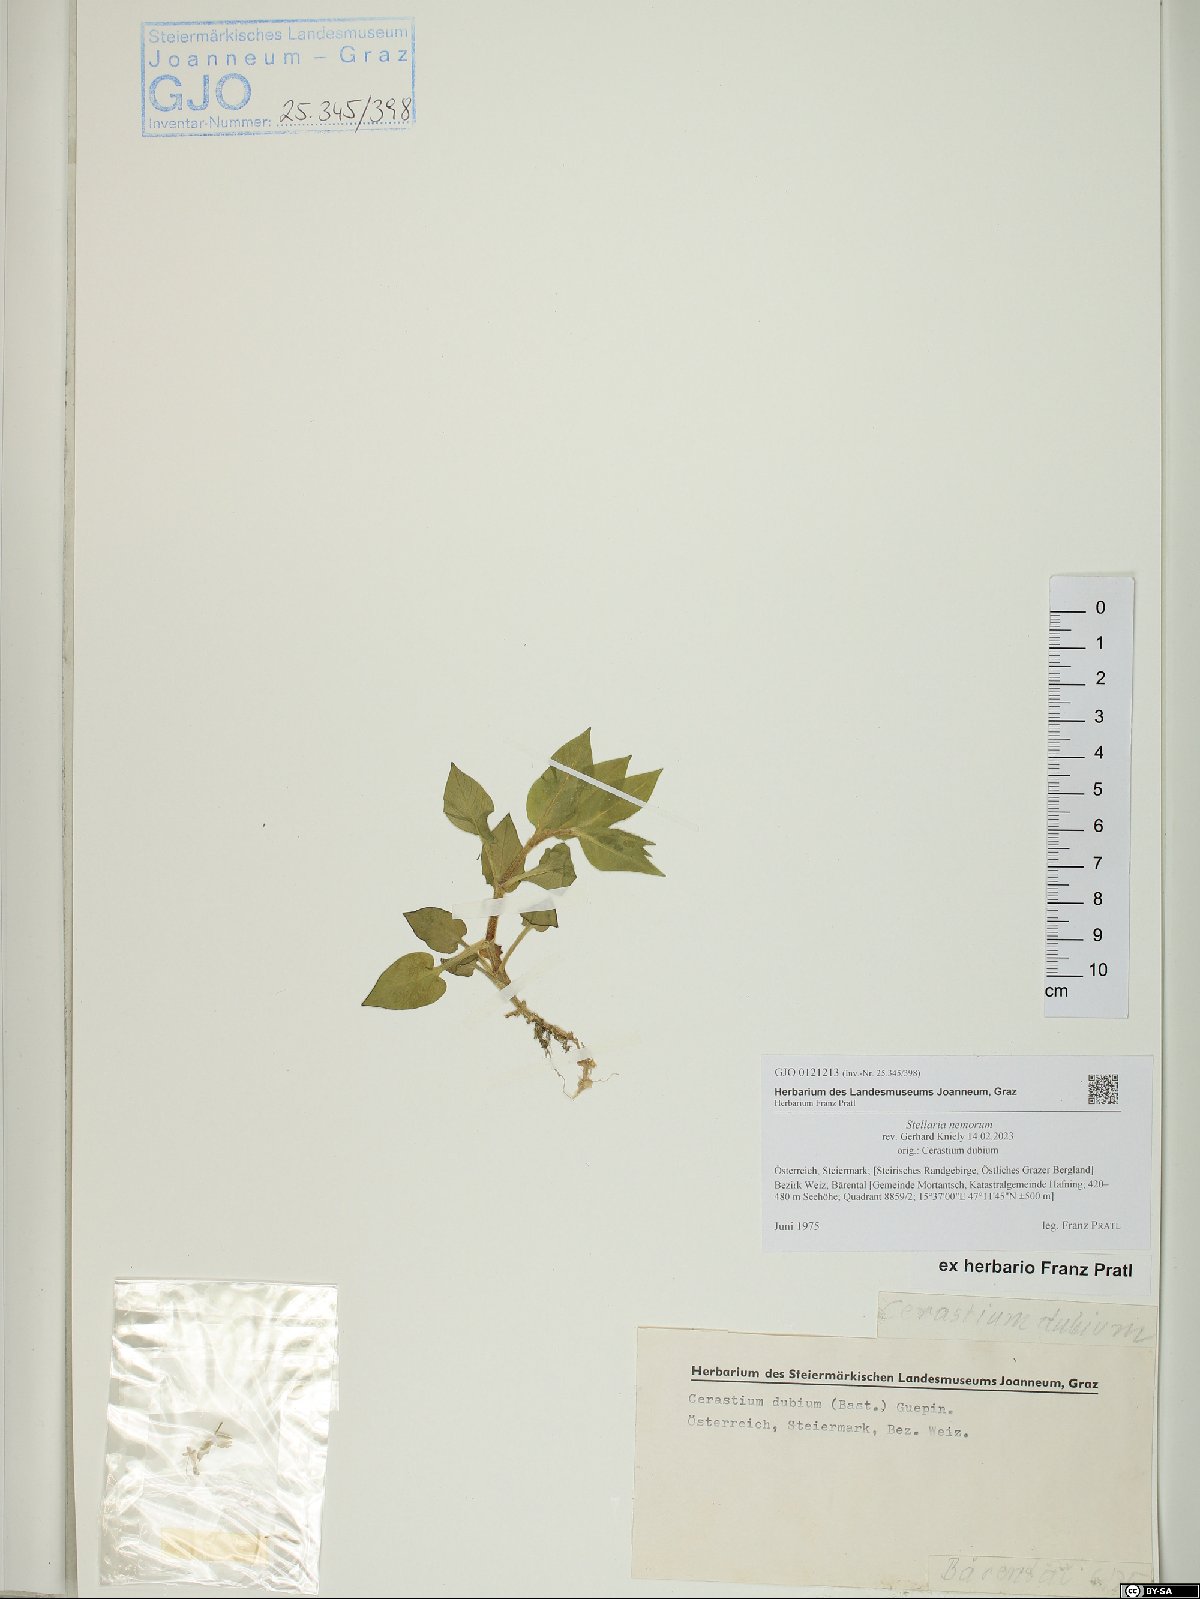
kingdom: Plantae
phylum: Tracheophyta
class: Magnoliopsida
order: Caryophyllales
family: Caryophyllaceae
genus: Stellaria
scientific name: Stellaria nemorum
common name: Wood stitchwort
